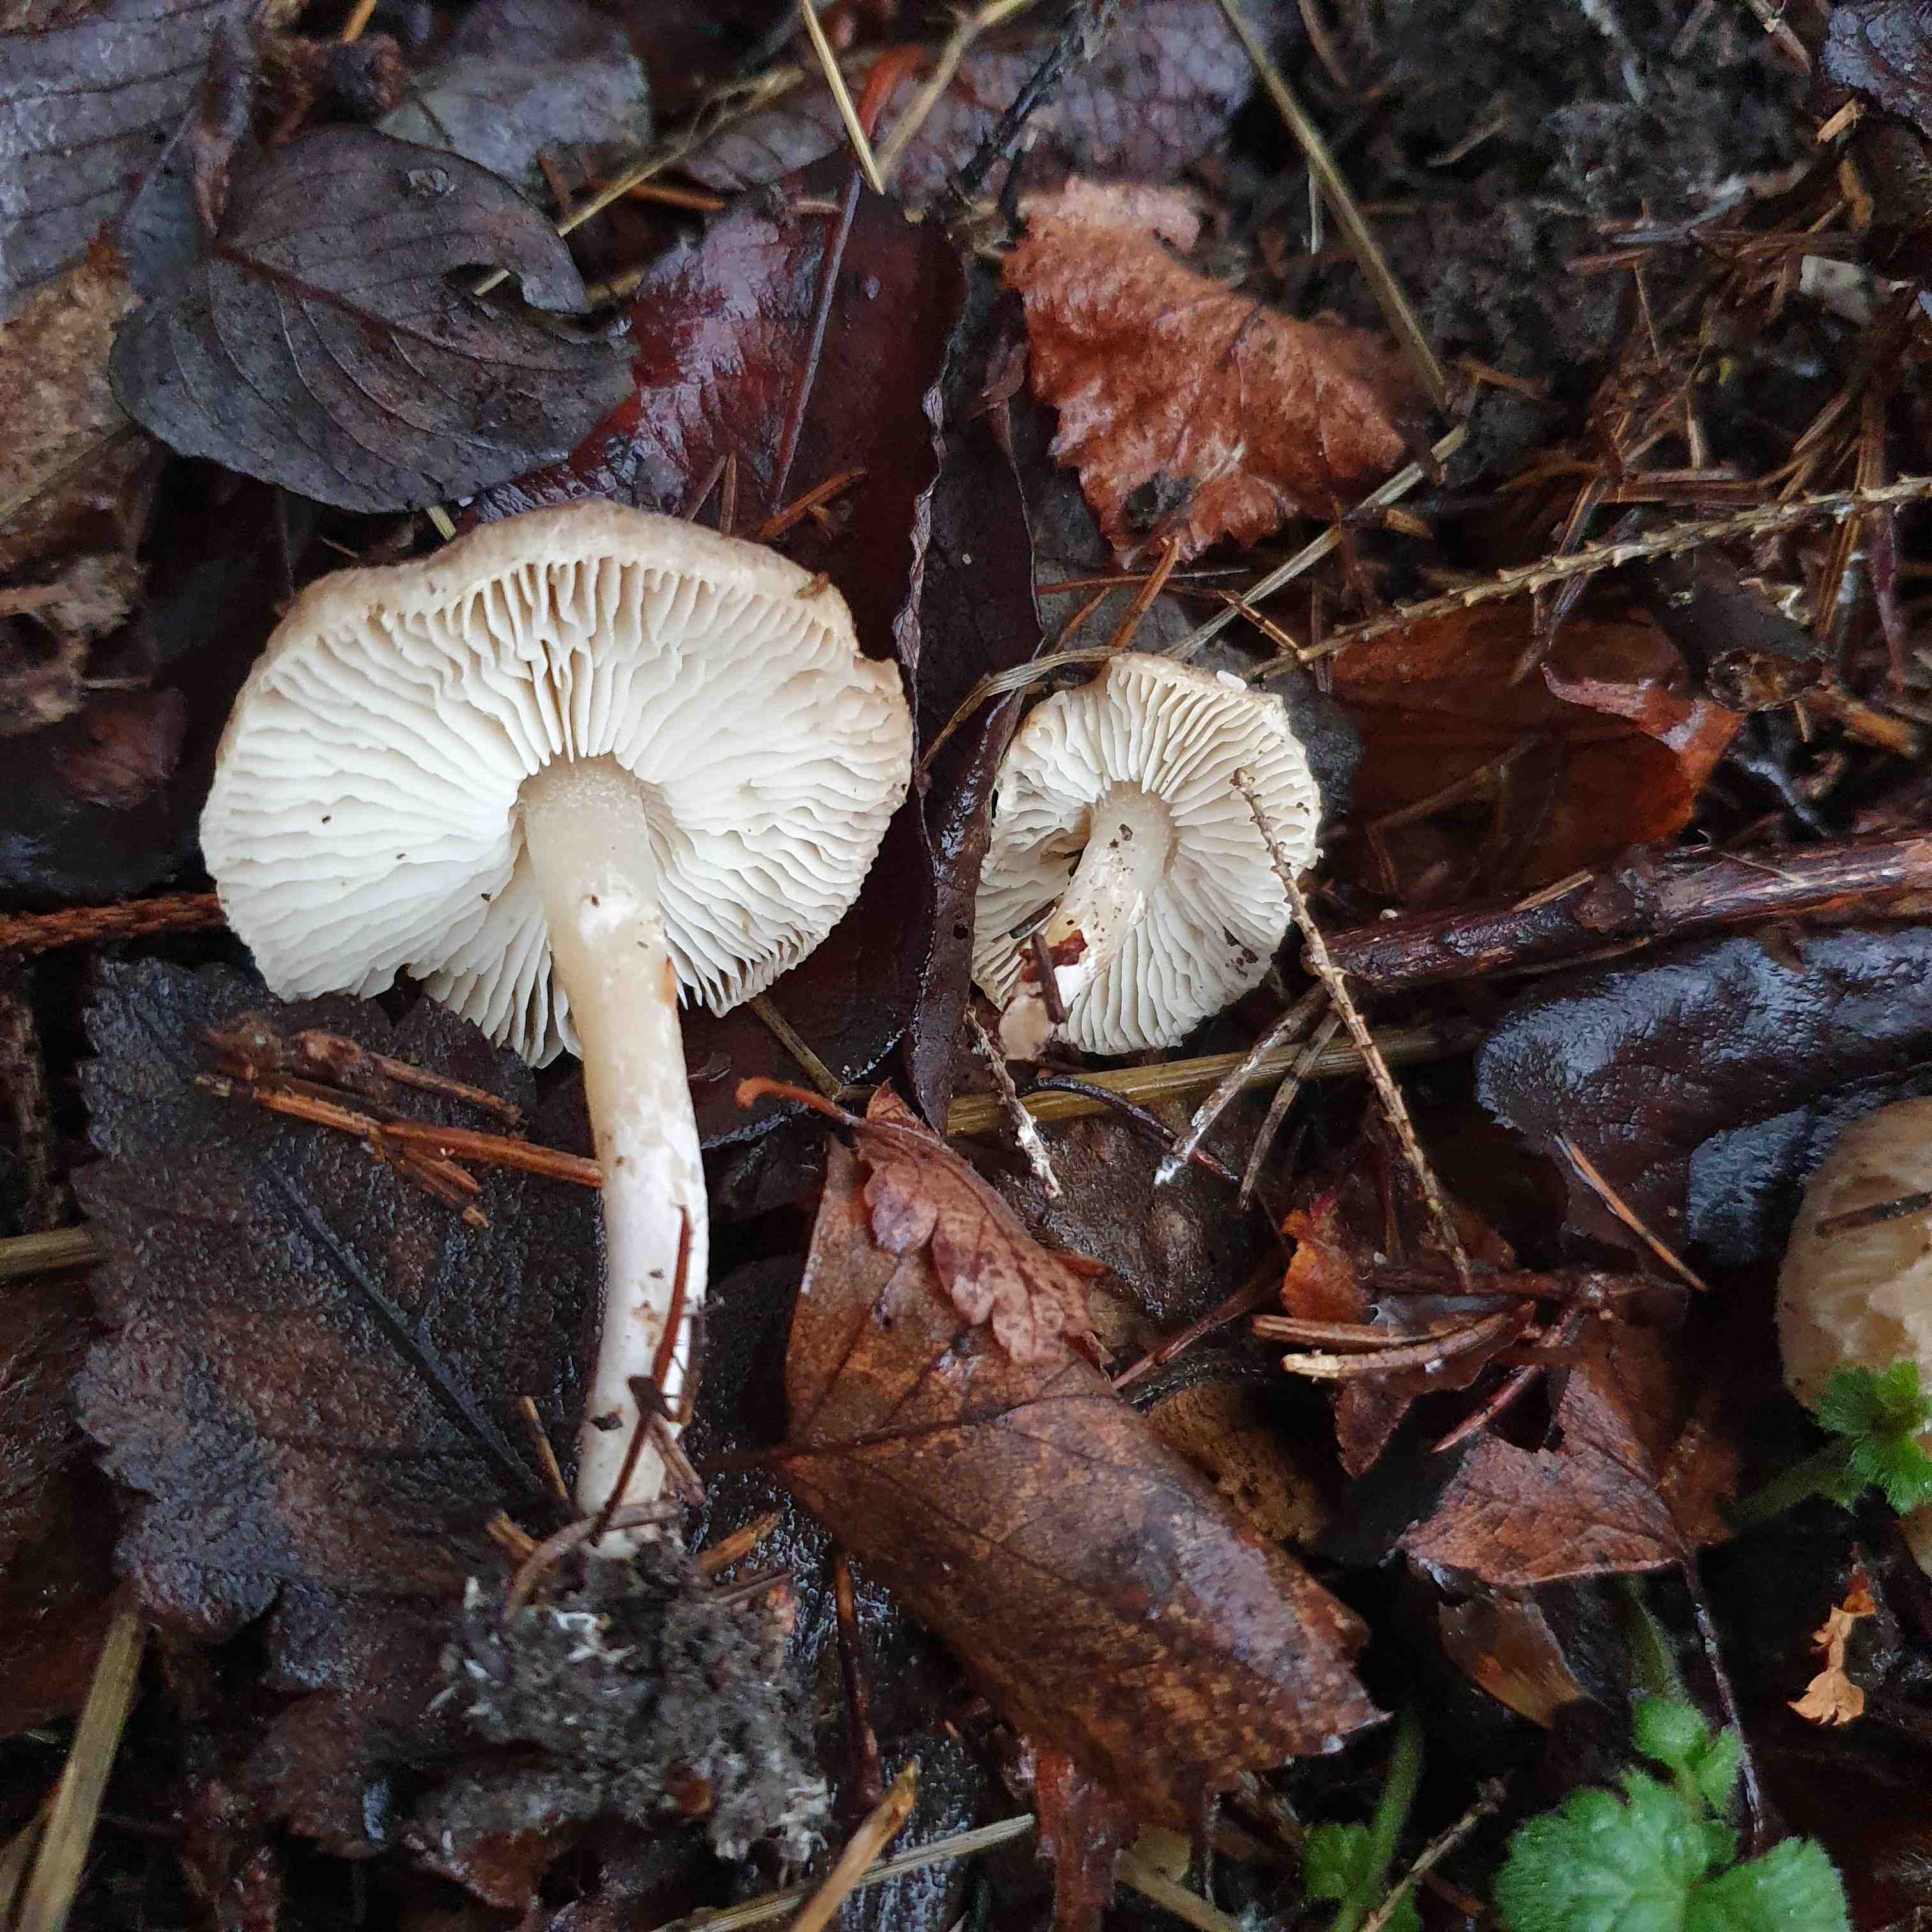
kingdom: Fungi
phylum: Basidiomycota
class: Agaricomycetes
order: Agaricales
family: Tricholomataceae
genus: Tricholoma
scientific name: Tricholoma argyraceum
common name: slør-ridderhat
